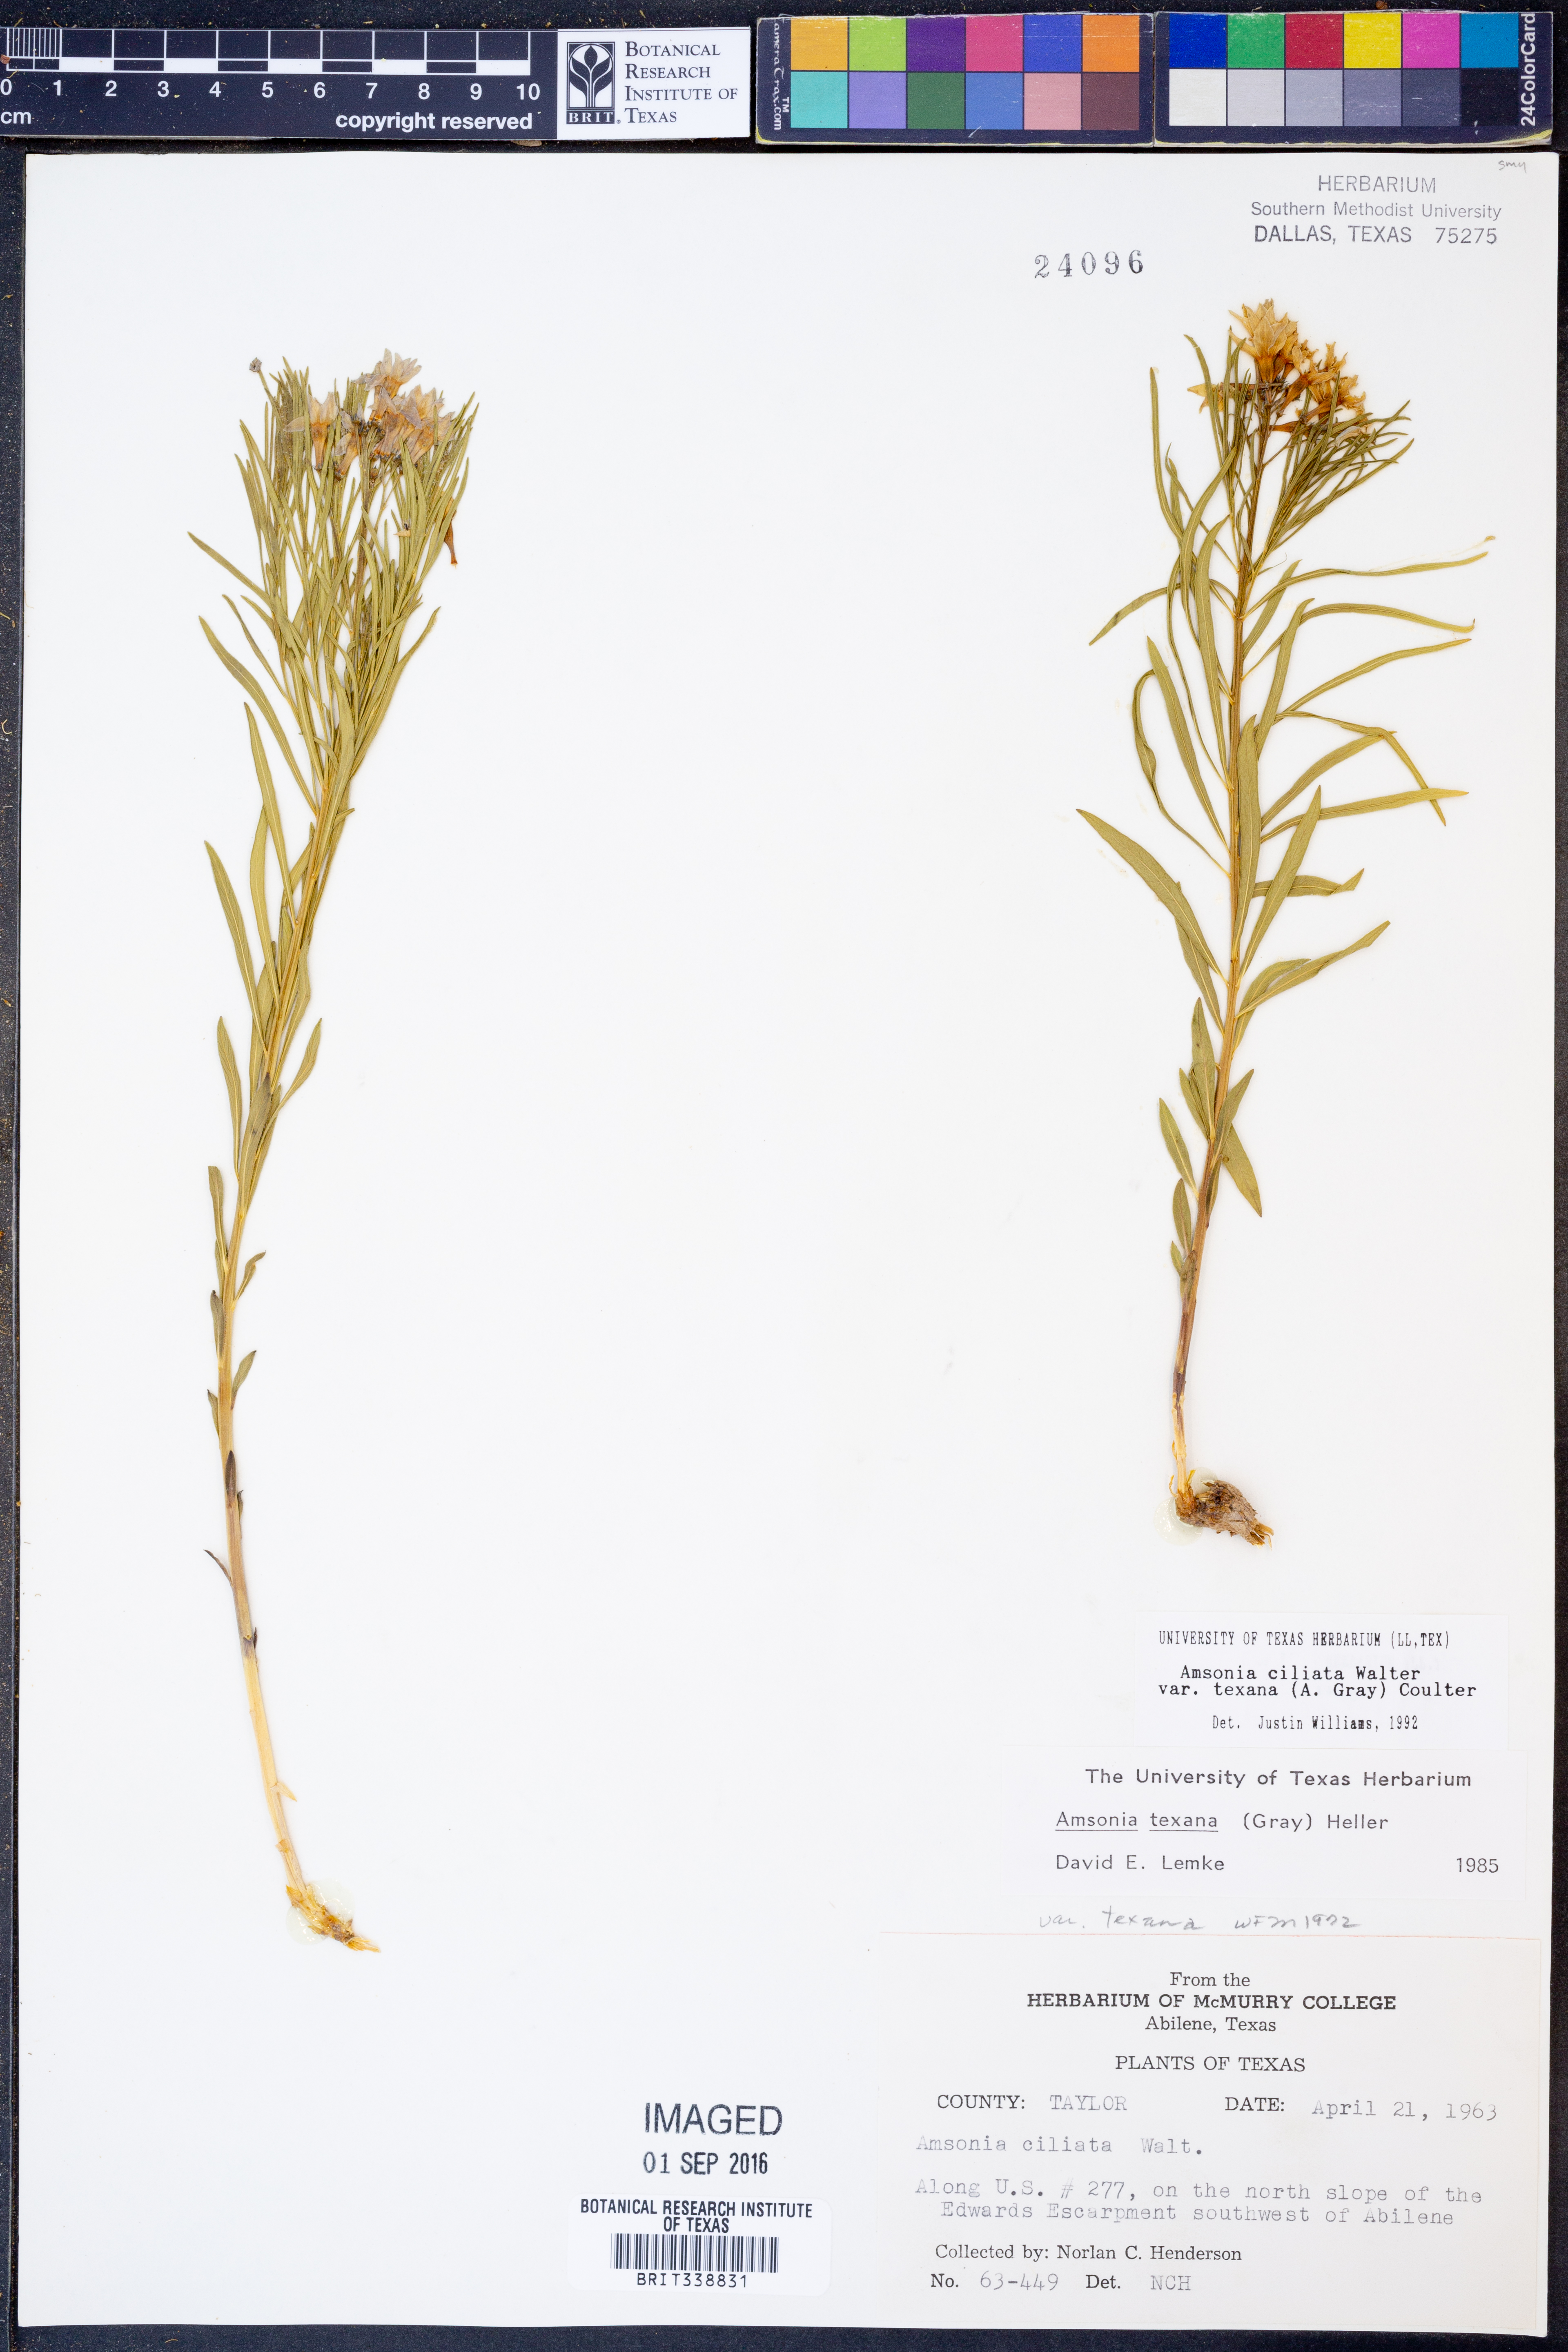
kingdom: Plantae
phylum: Tracheophyta
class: Magnoliopsida
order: Gentianales
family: Apocynaceae
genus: Amsonia
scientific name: Amsonia ciliata
